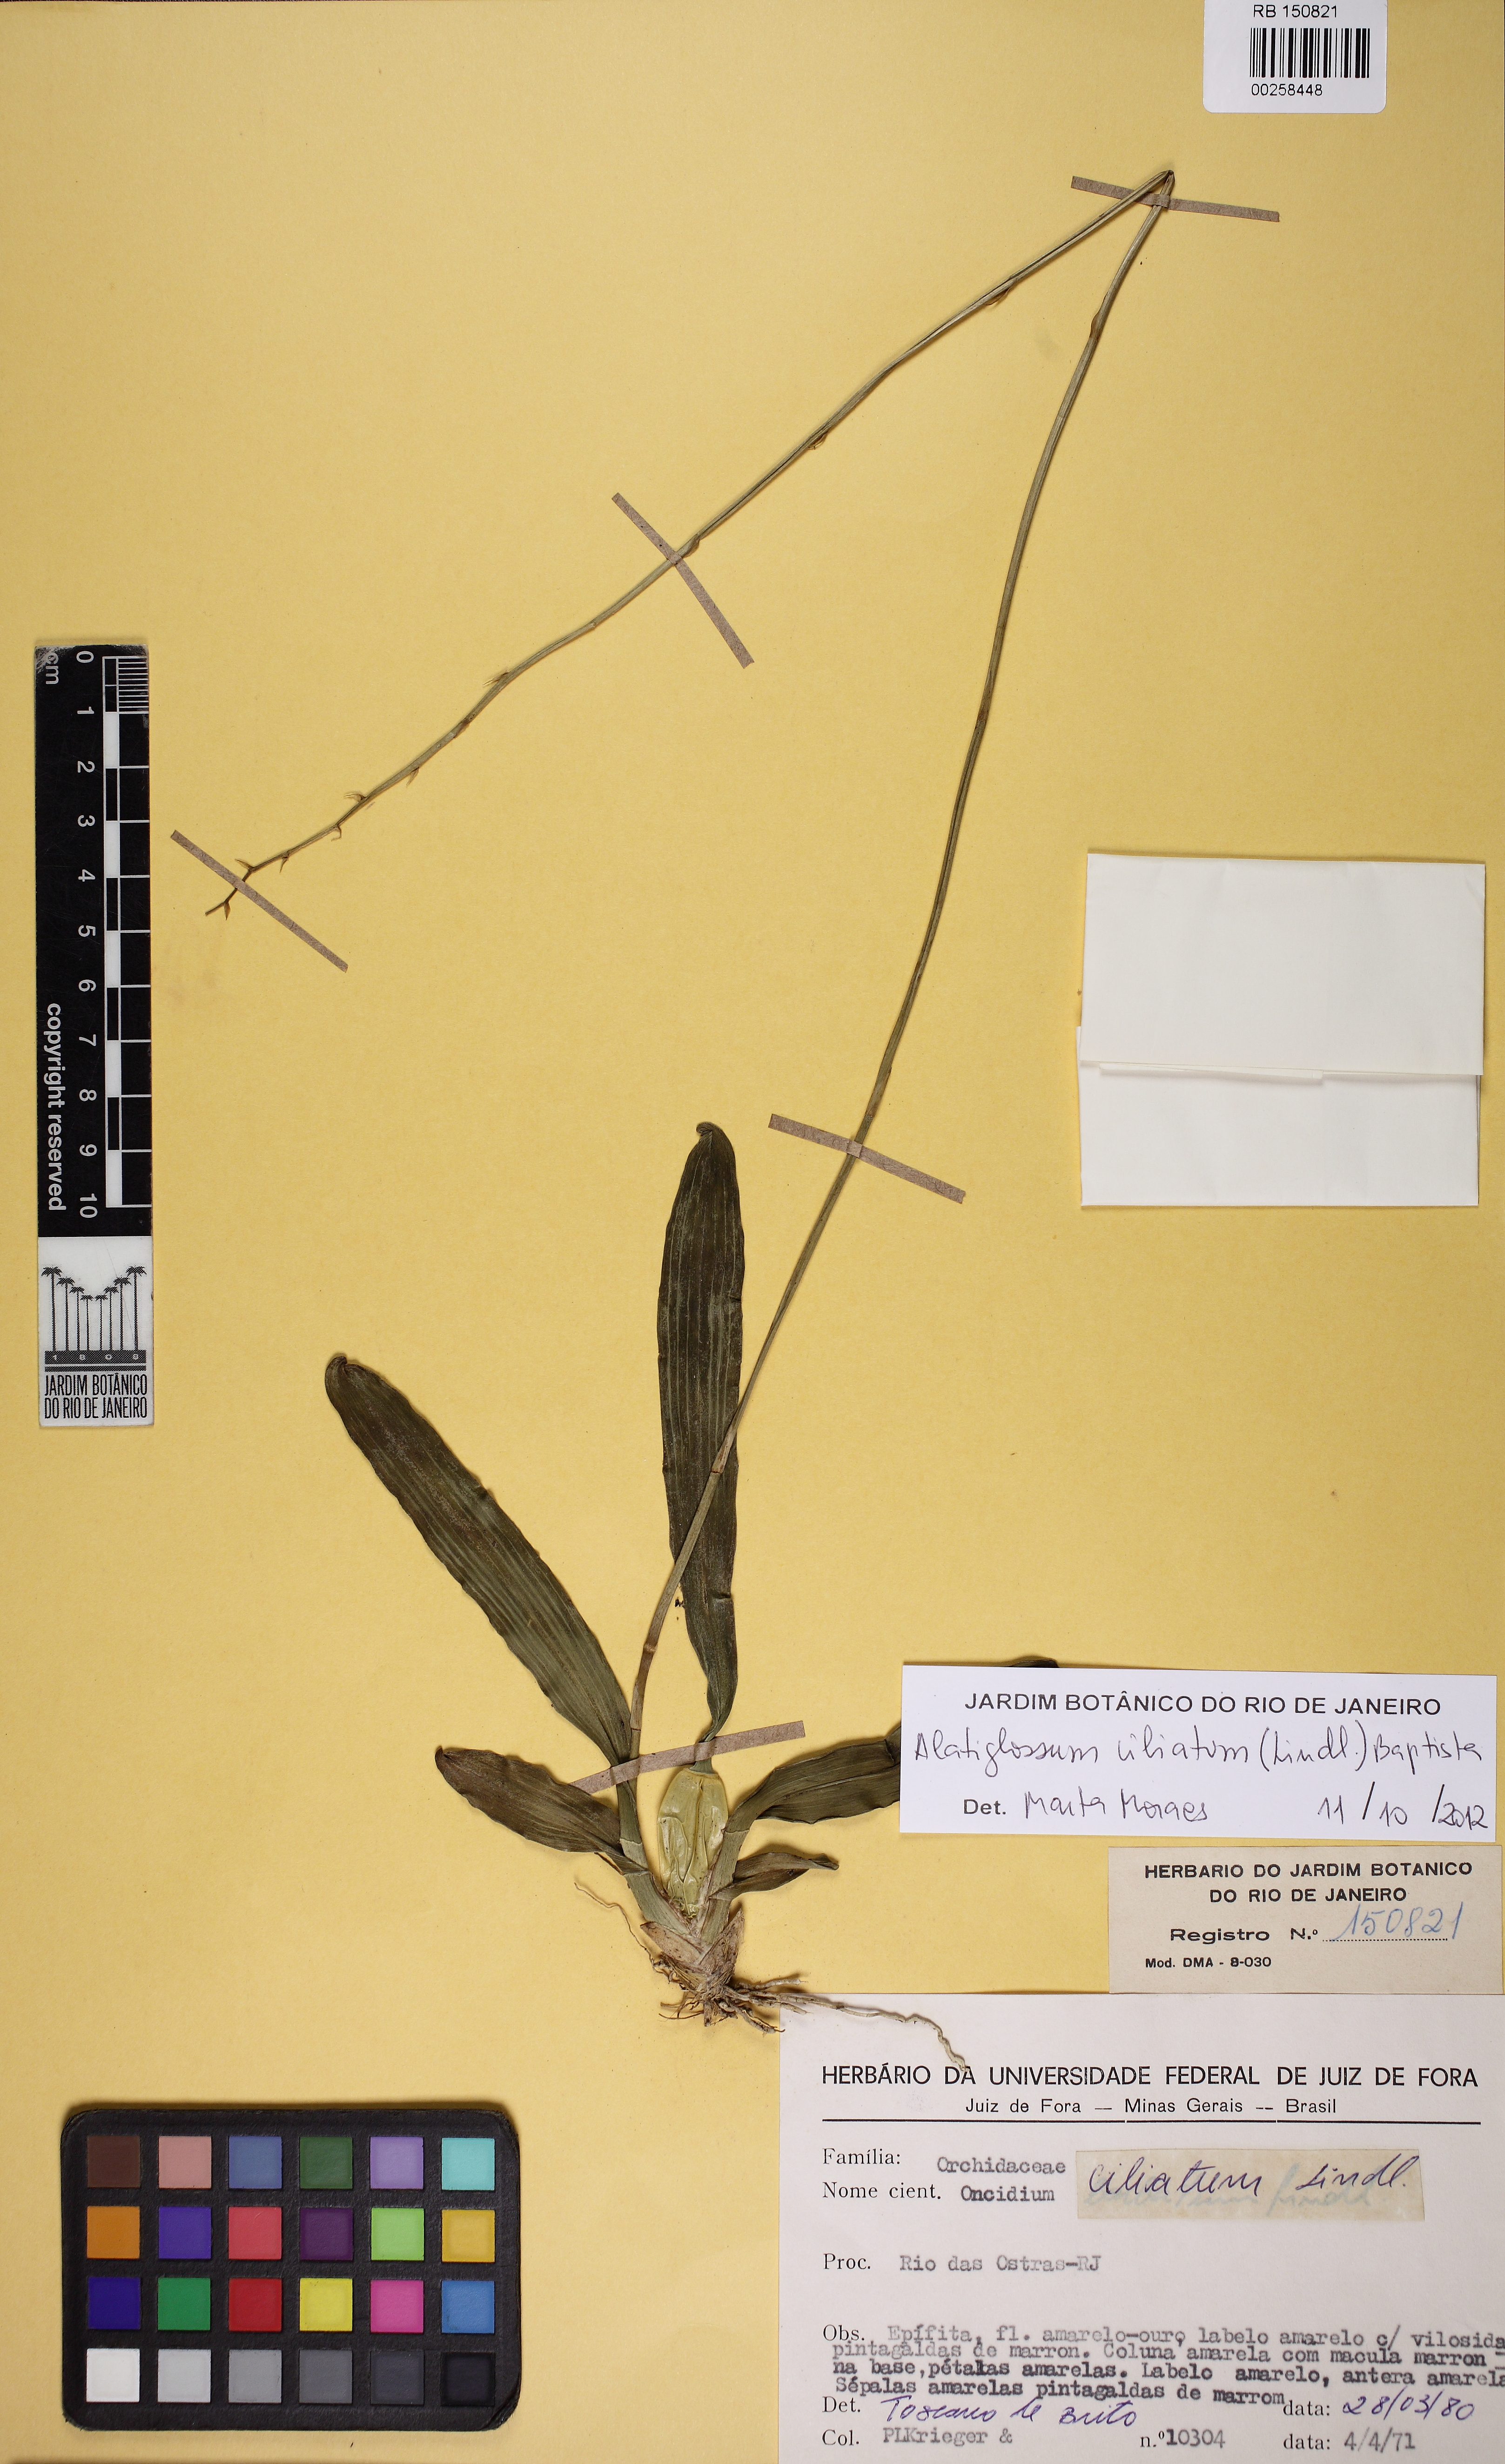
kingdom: Plantae
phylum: Tracheophyta
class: Liliopsida
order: Asparagales
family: Orchidaceae
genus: Gomesa
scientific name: Gomesa barbata
